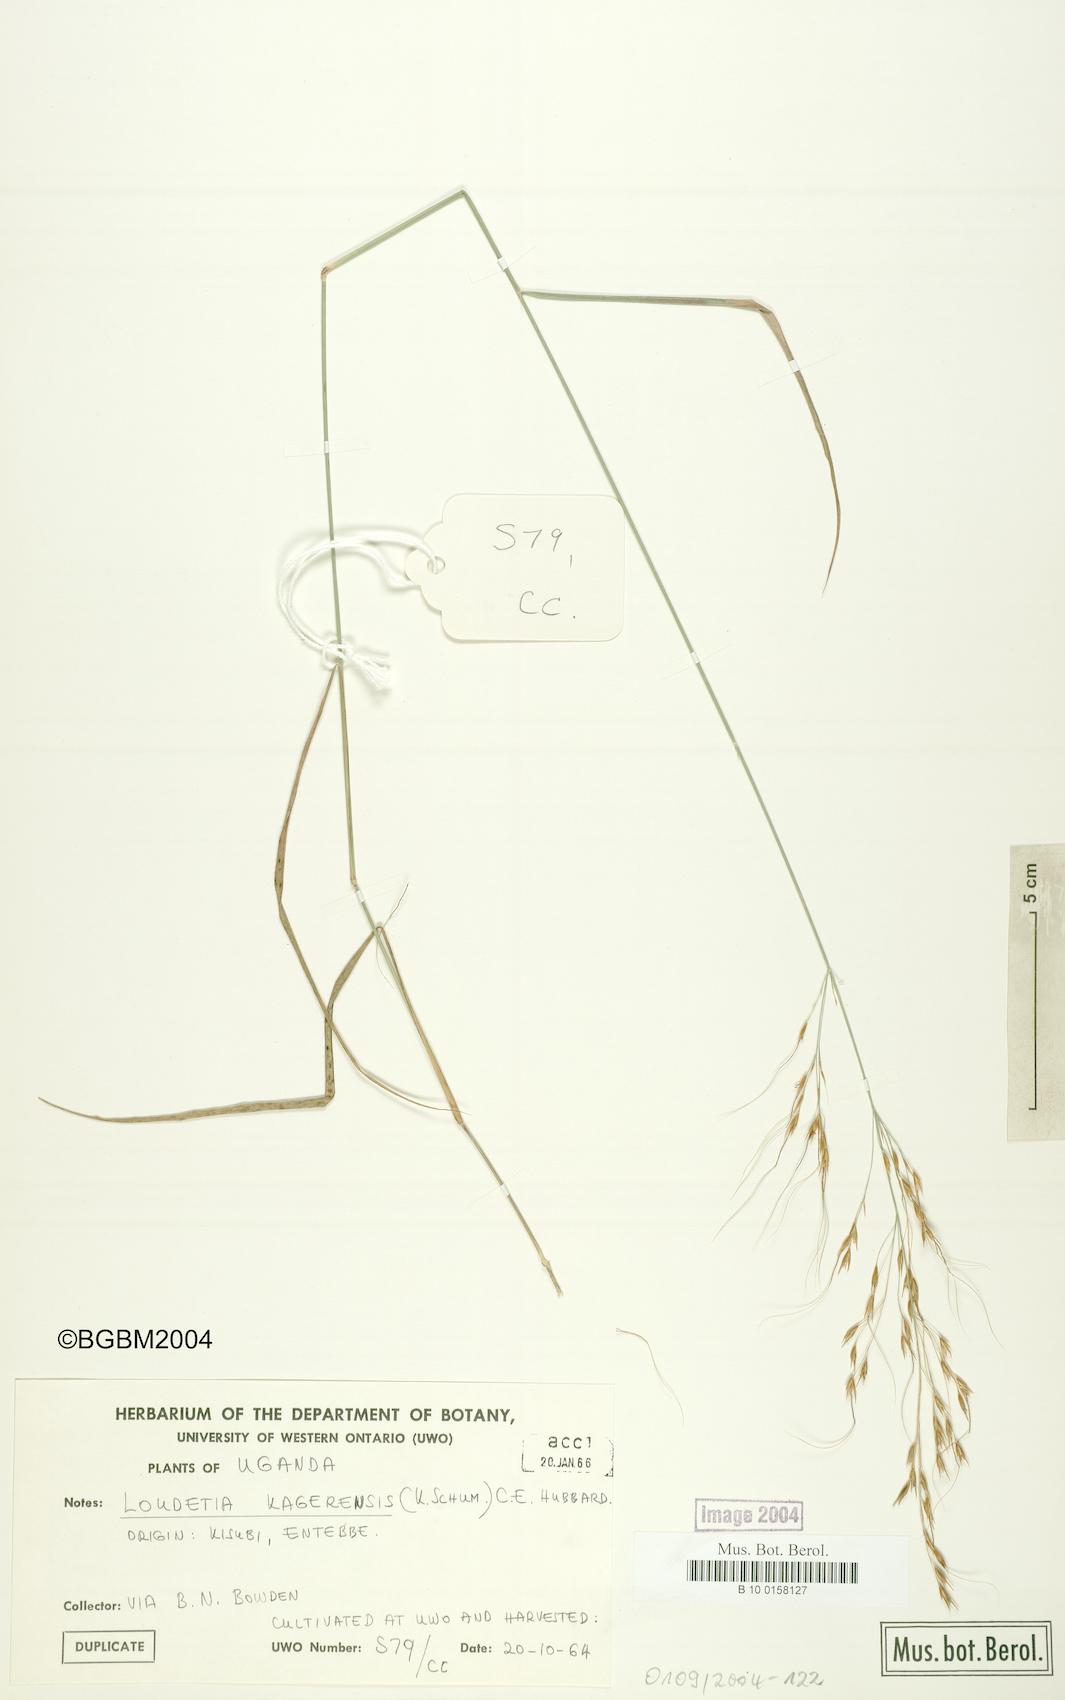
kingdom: Plantae
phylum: Tracheophyta
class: Liliopsida
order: Poales
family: Poaceae
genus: Loudetia
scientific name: Loudetia kagerensis
